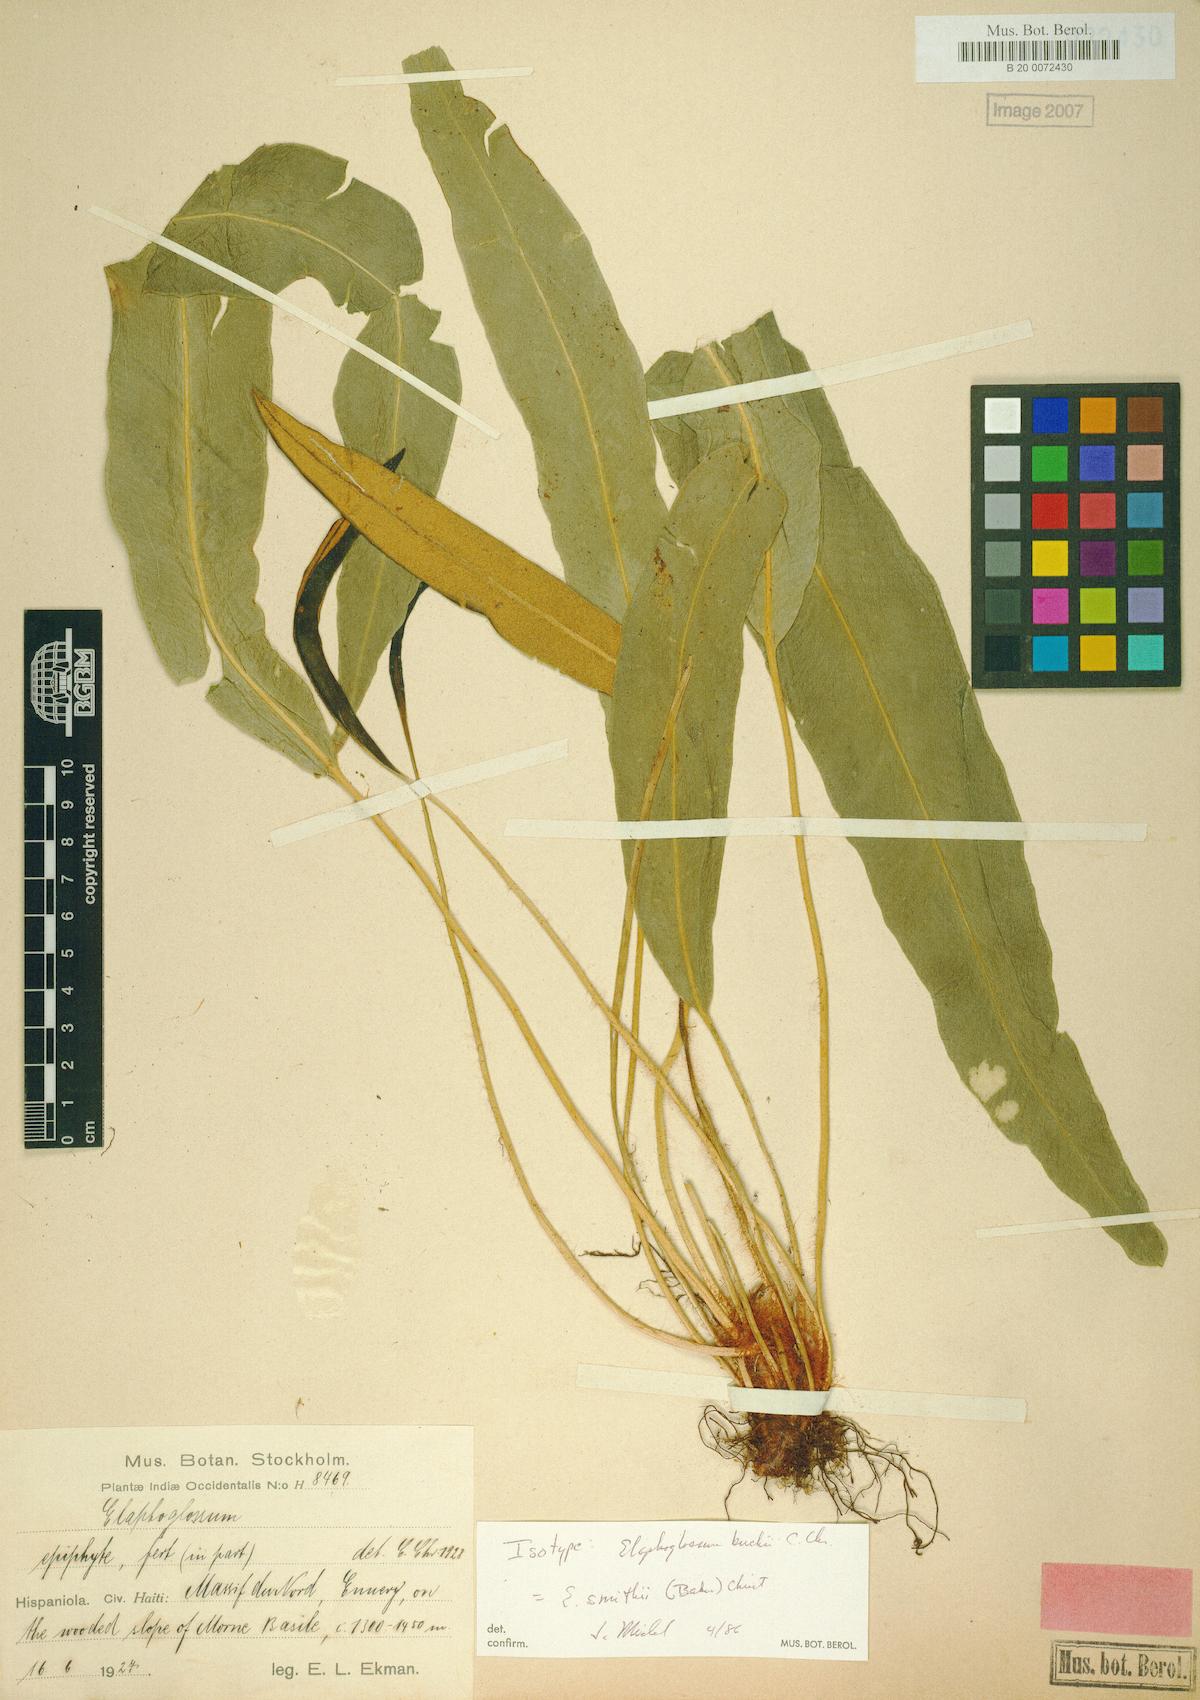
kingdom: Plantae
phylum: Tracheophyta
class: Polypodiopsida
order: Polypodiales
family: Dryopteridaceae
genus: Elaphoglossum
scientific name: Elaphoglossum smithii
